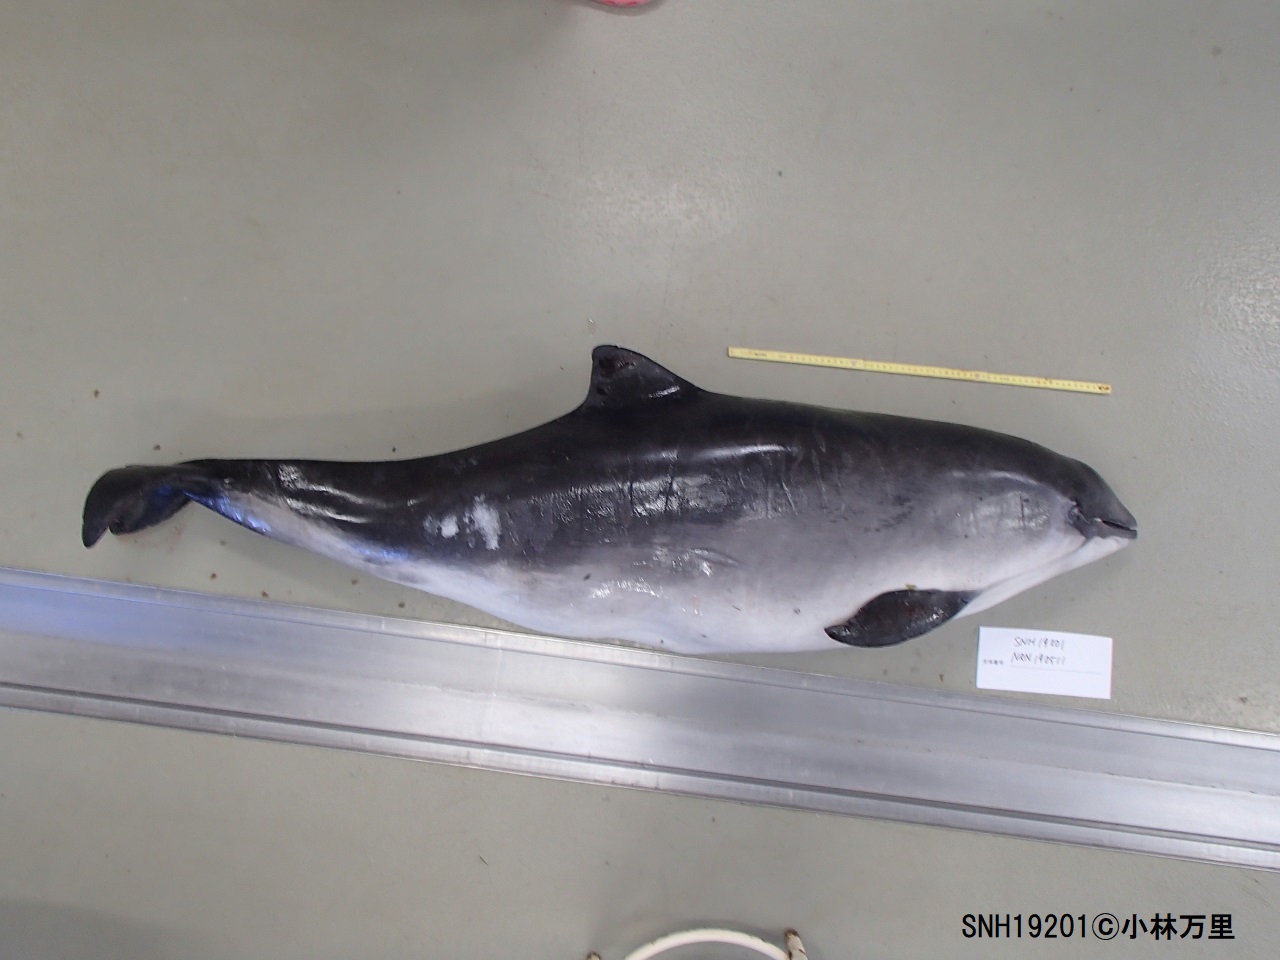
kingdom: Animalia
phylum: Chordata
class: Mammalia
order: Cetacea
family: Phocoenidae
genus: Phocoena
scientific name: Phocoena phocoena
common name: Harbour porpoise
